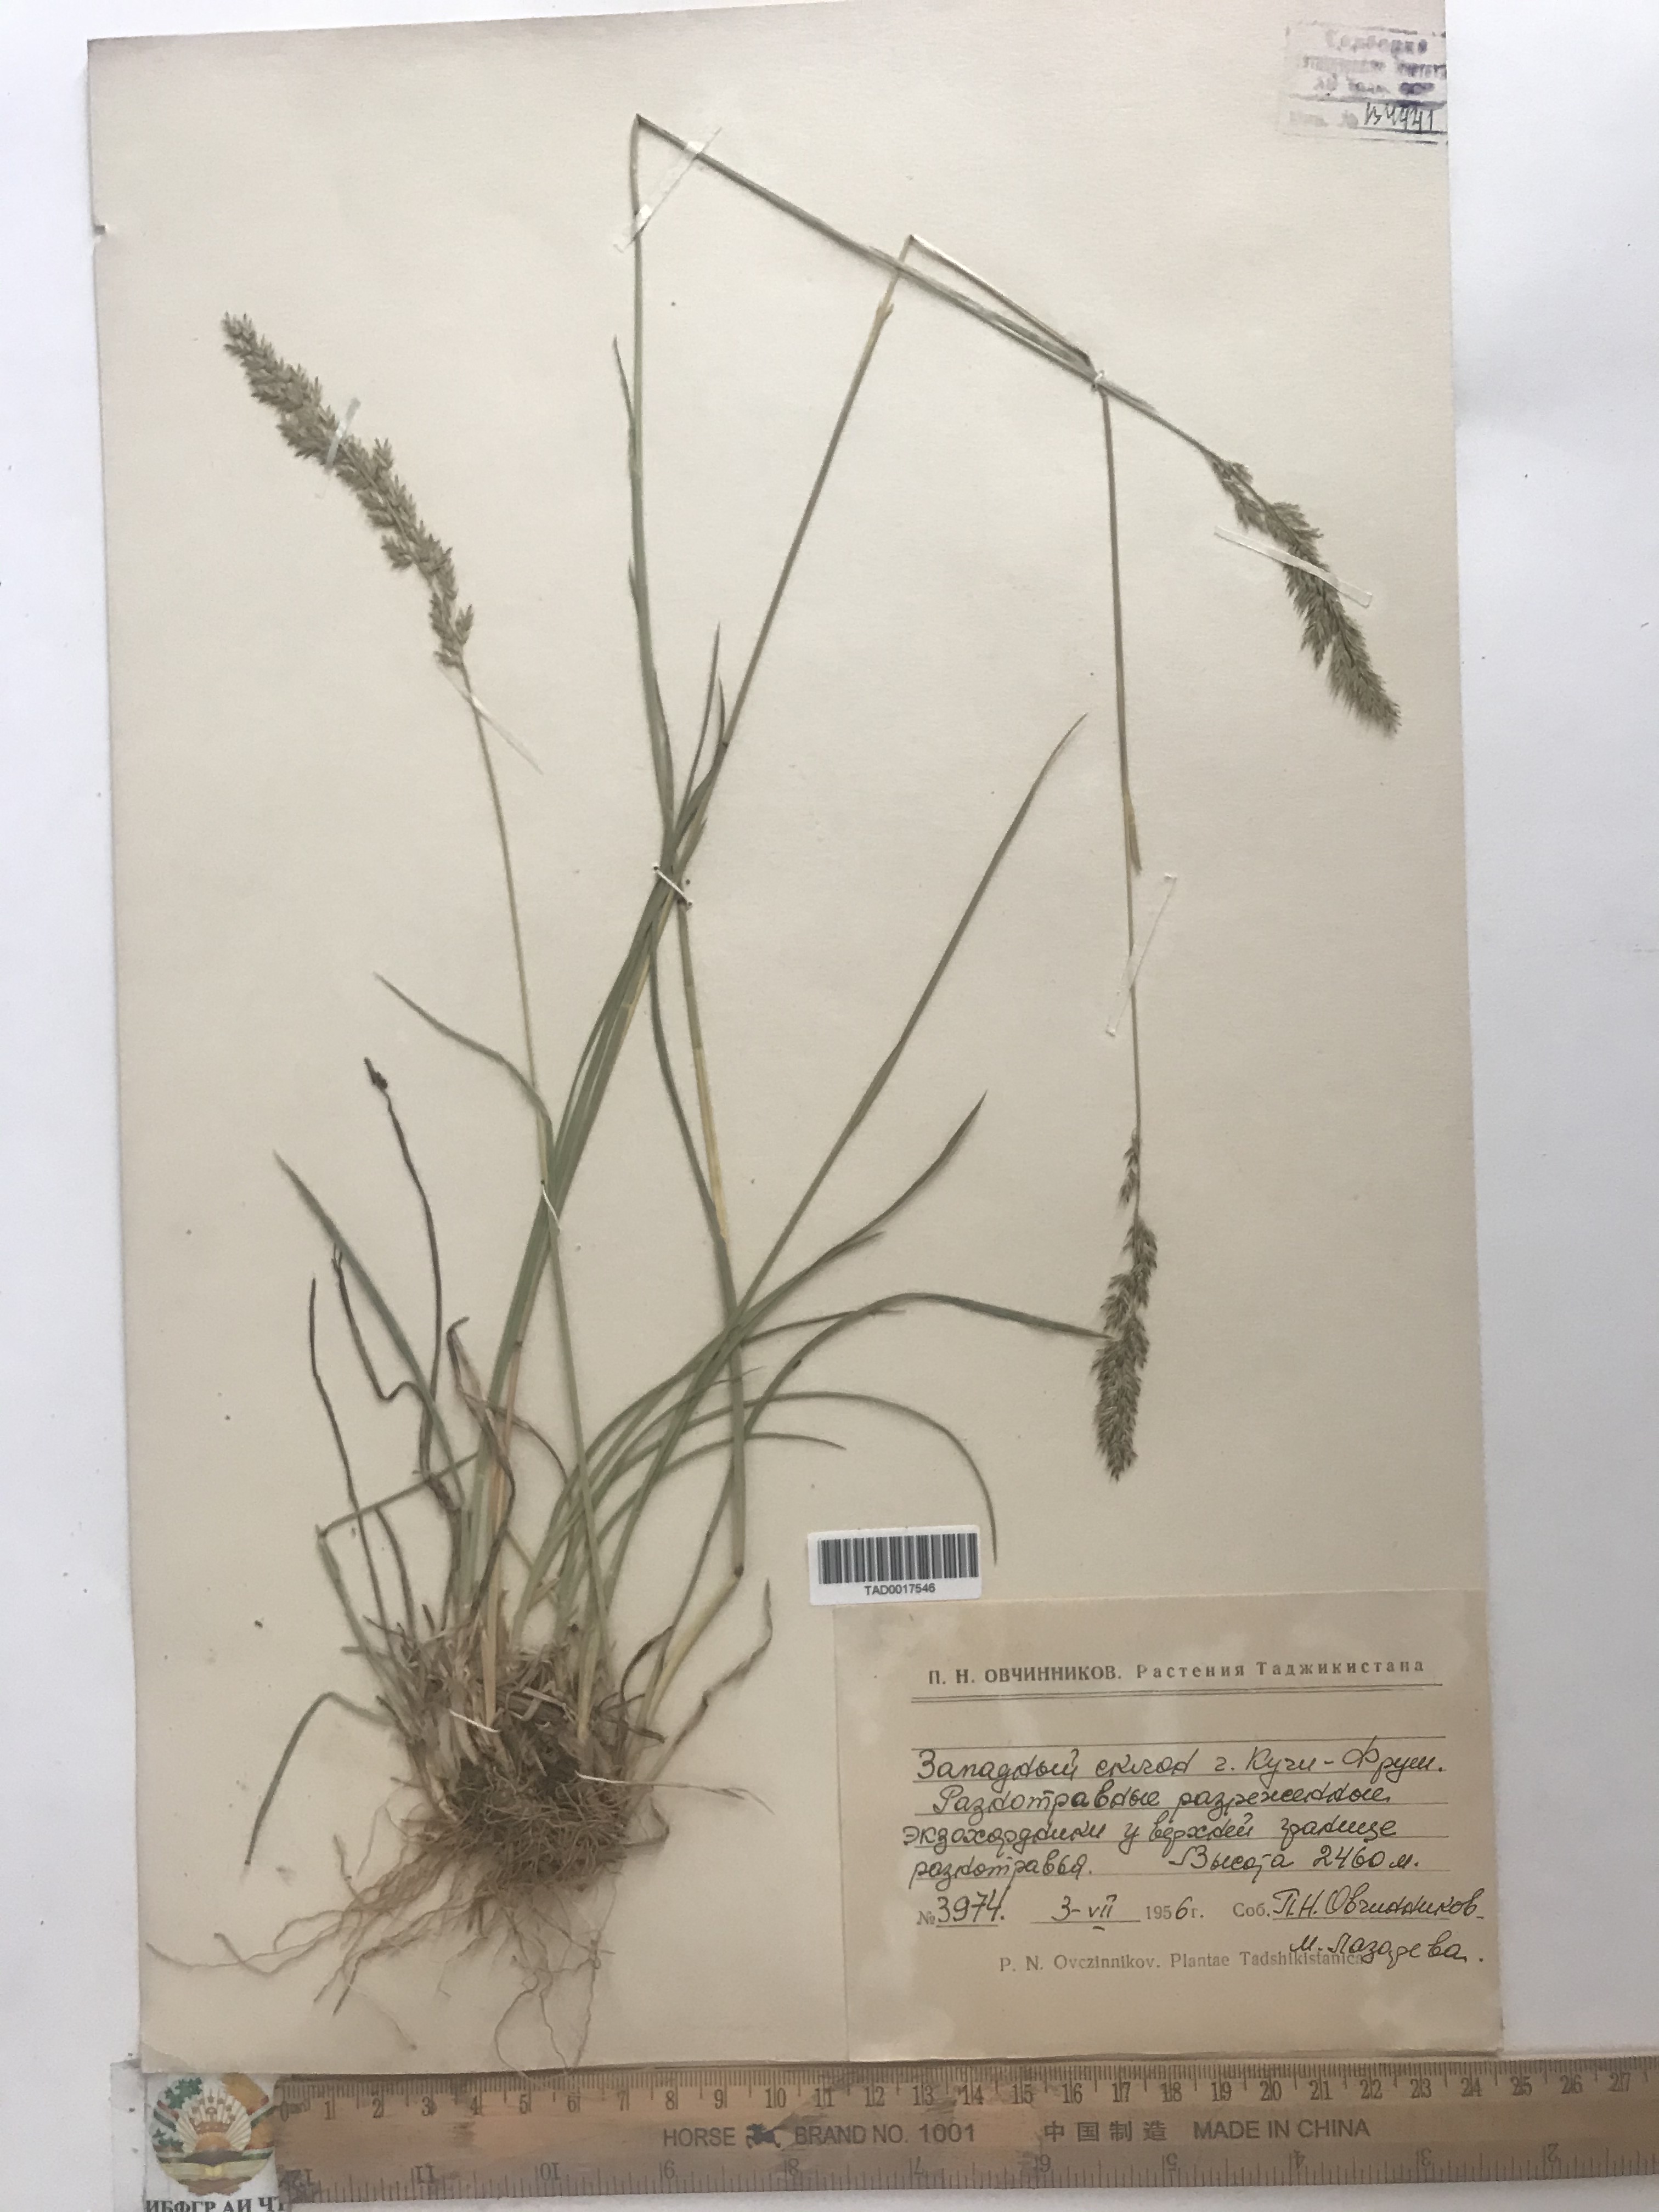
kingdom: Plantae
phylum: Tracheophyta
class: Liliopsida
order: Poales
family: Poaceae
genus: Poa
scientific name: Poa pratensis
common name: Kentucky bluegrass
